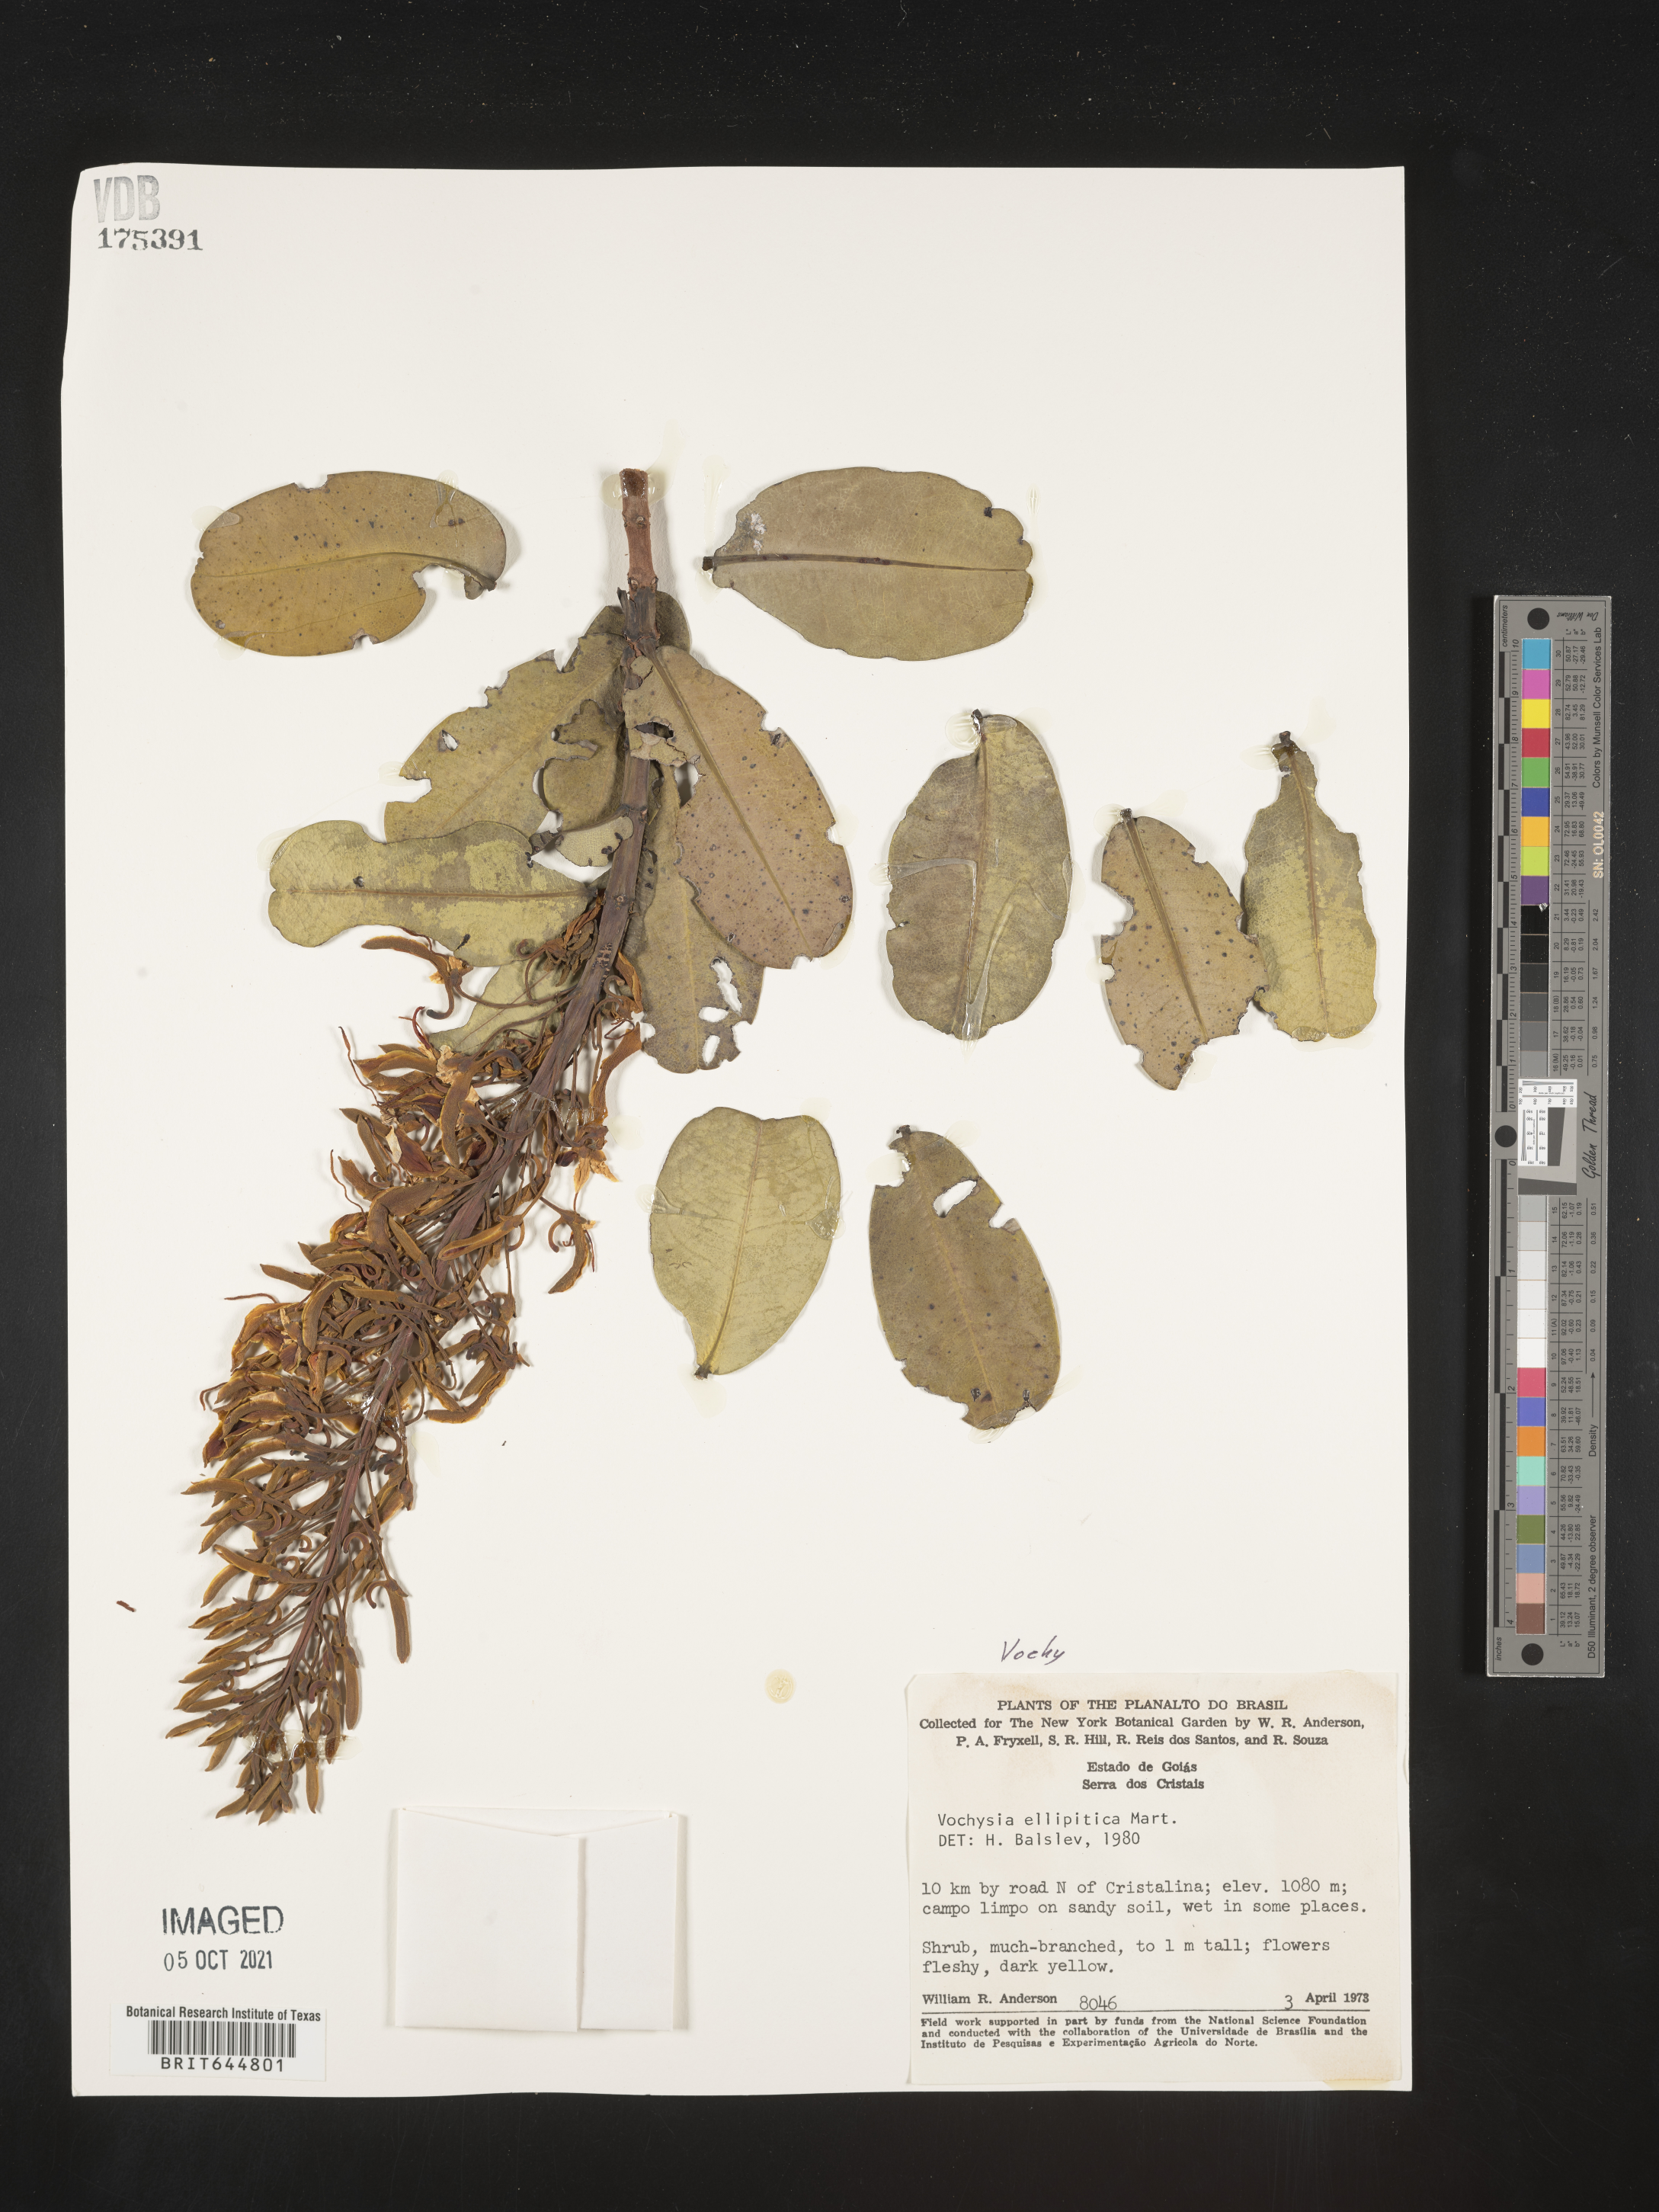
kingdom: Plantae
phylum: Tracheophyta
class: Magnoliopsida
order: Myrtales
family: Vochysiaceae
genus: Vochysia
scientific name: Vochysia
